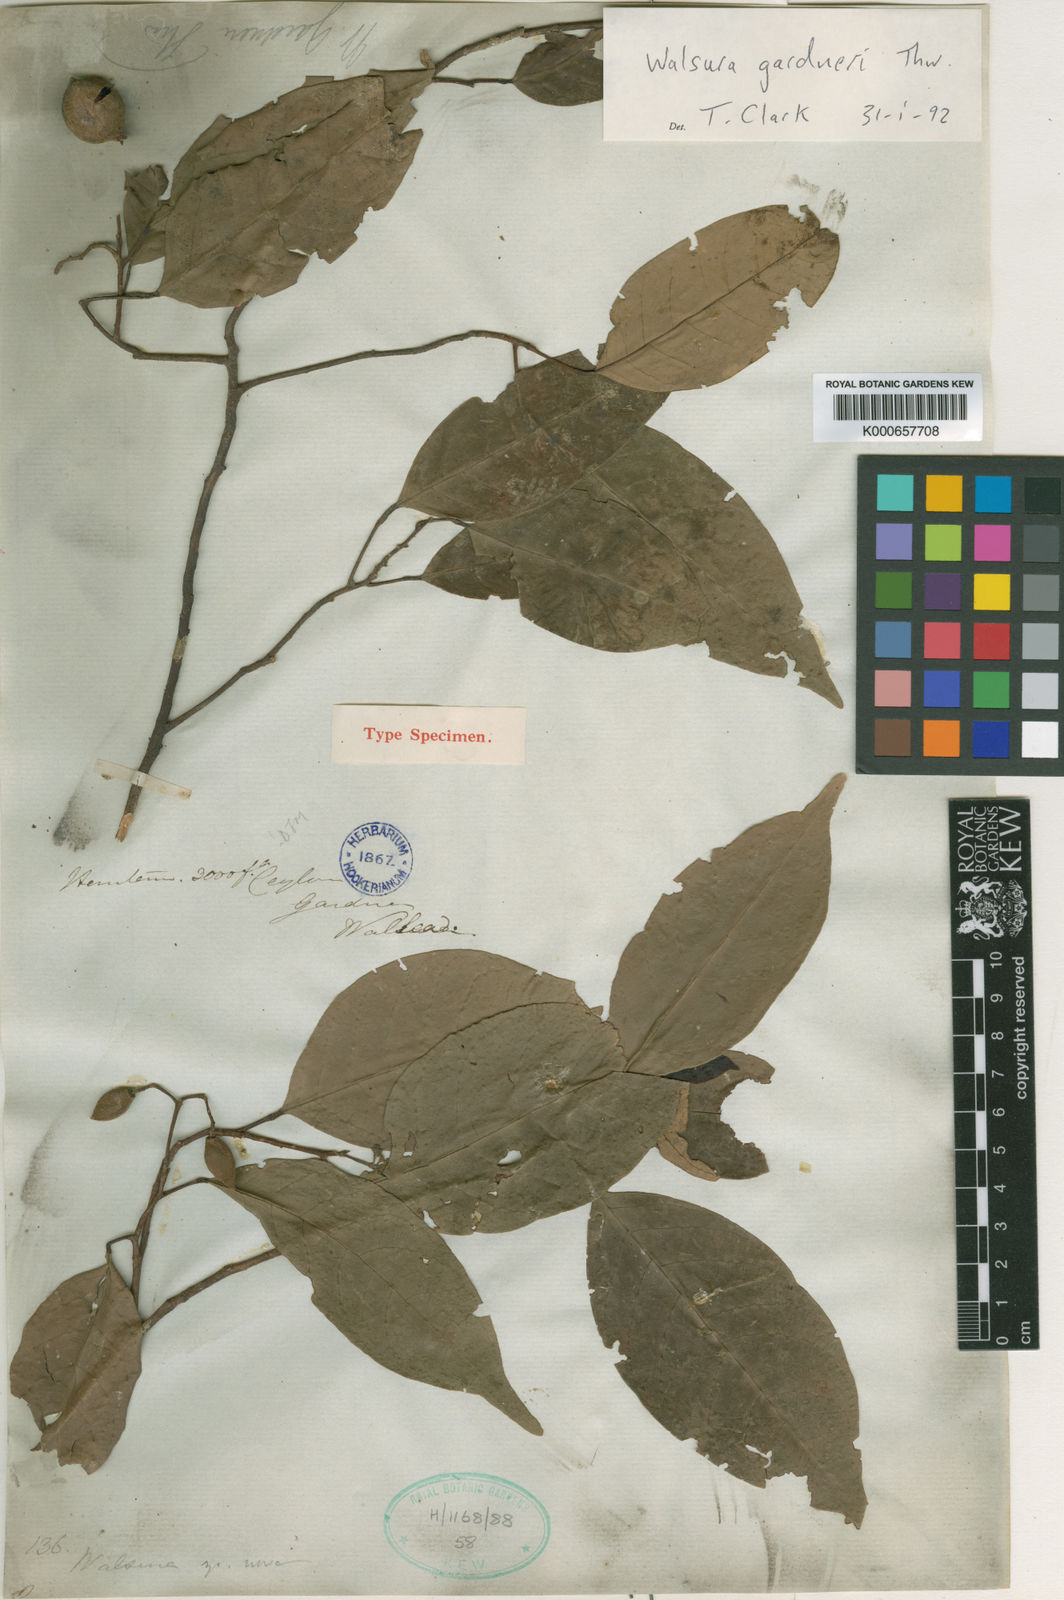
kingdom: Plantae
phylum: Tracheophyta
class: Magnoliopsida
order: Sapindales
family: Meliaceae
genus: Walsura
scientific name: Walsura gardneri
